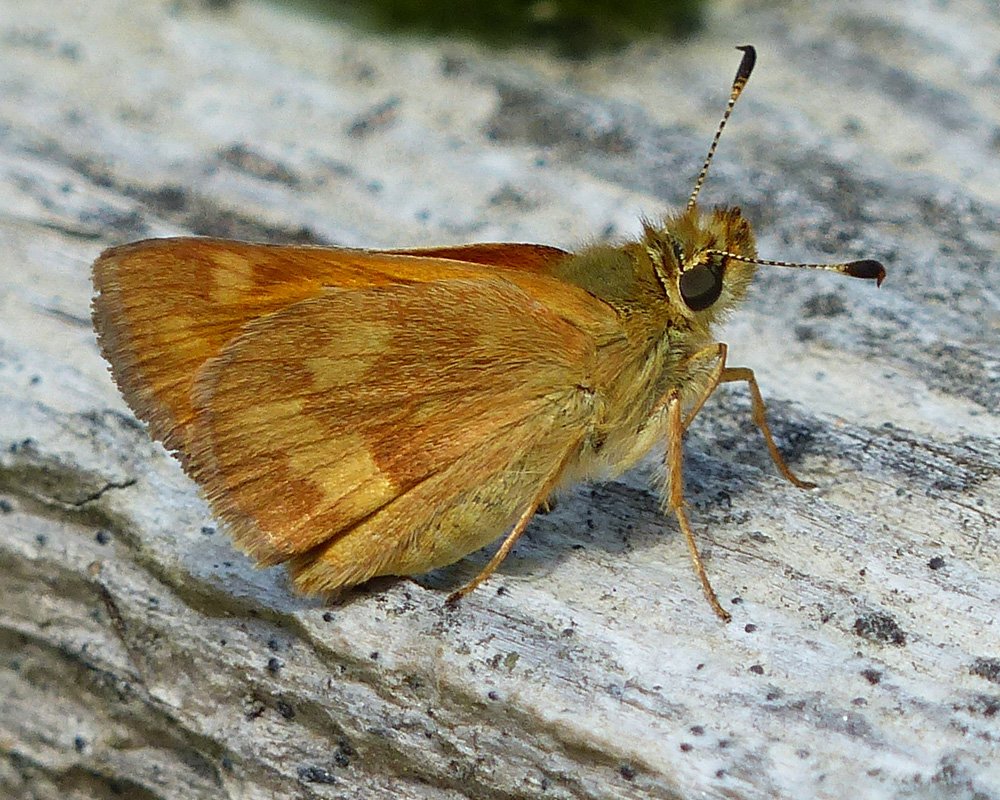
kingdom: Animalia
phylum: Arthropoda
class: Insecta
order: Lepidoptera
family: Hesperiidae
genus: Ochlodes
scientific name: Ochlodes sylvanoides
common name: Woodland Skipper
